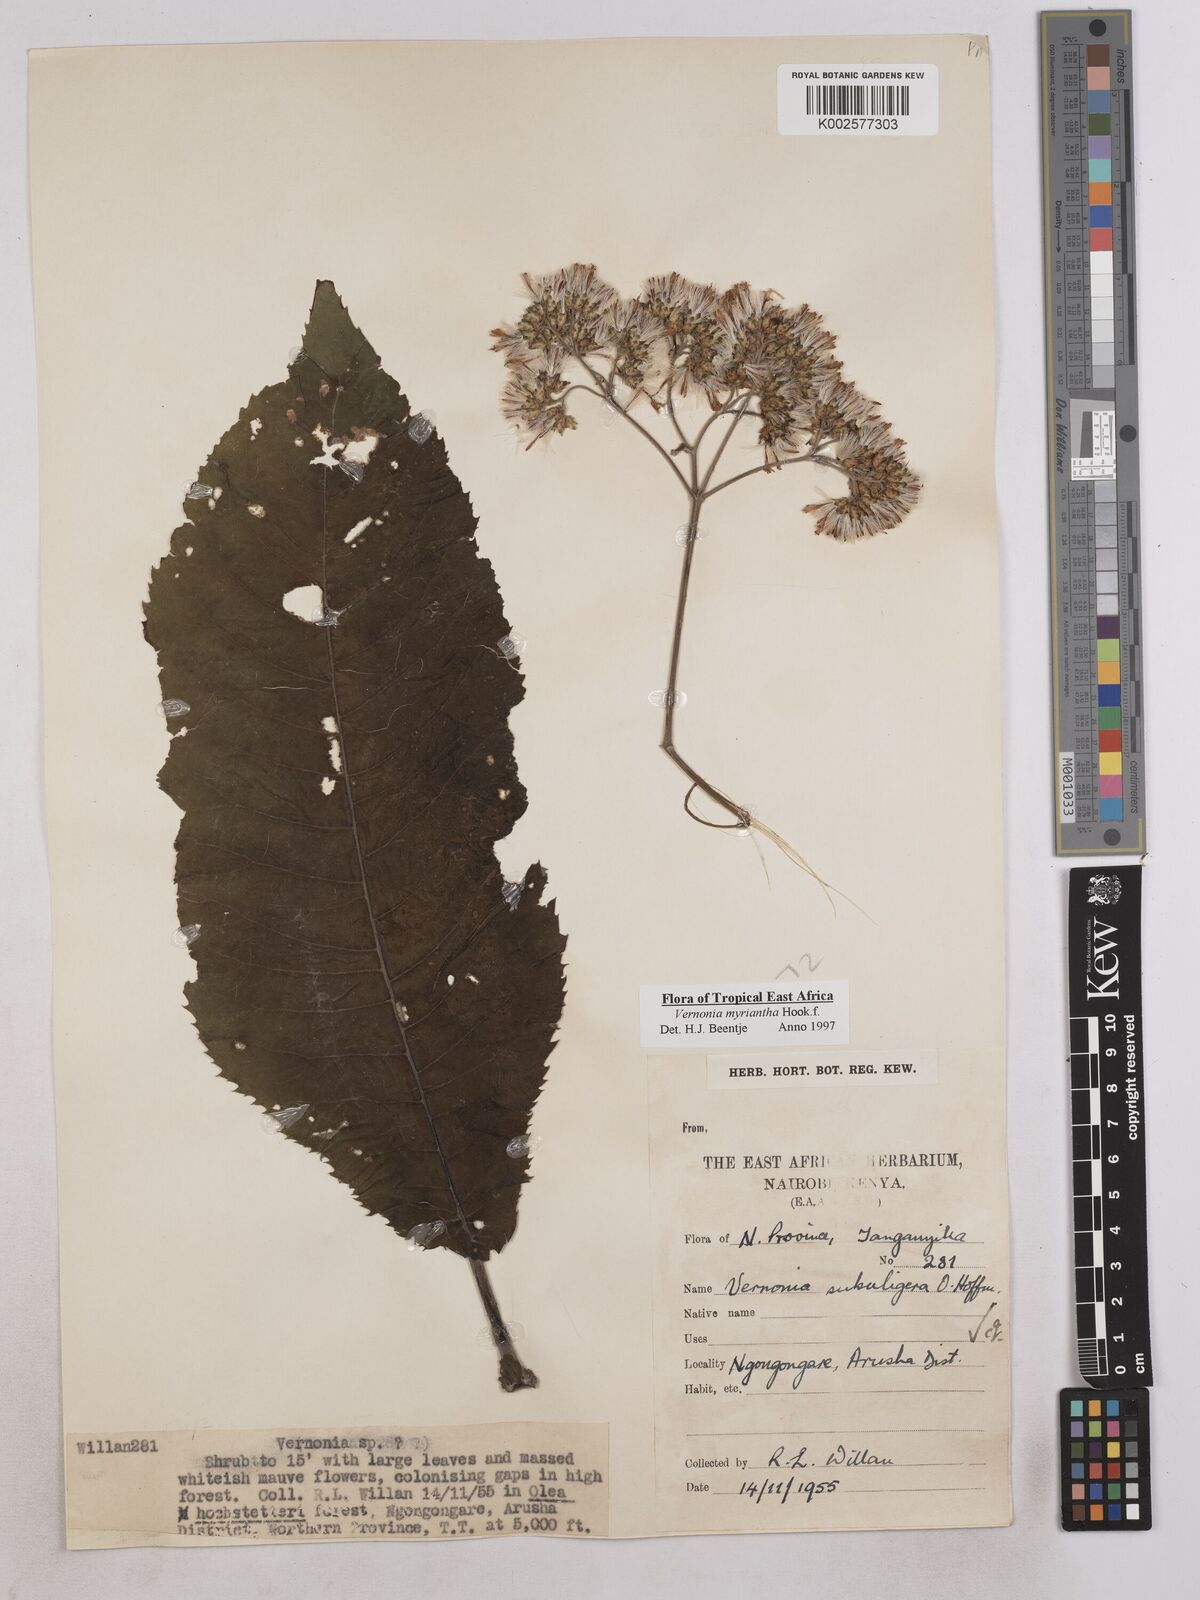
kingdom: Plantae
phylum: Tracheophyta
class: Magnoliopsida
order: Asterales
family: Asteraceae
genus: Gymnanthemum
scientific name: Gymnanthemum myrianthum
